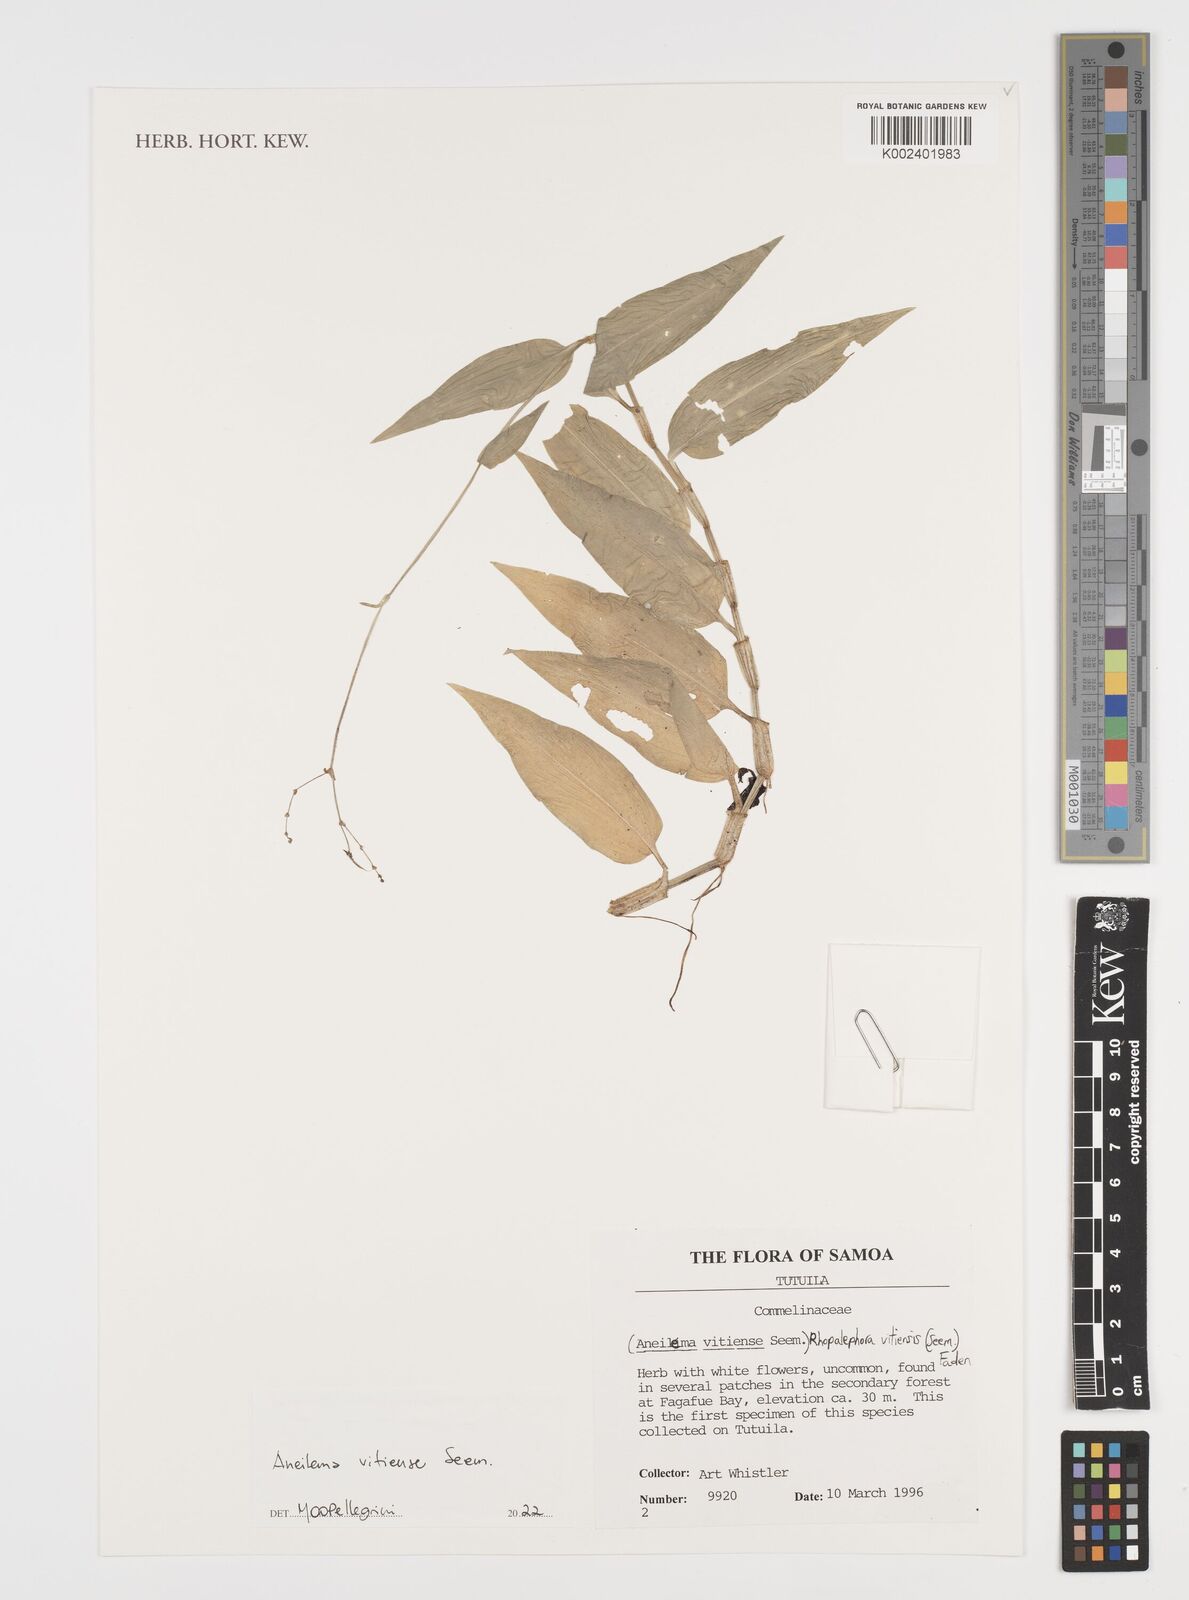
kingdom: Plantae
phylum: Tracheophyta
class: Liliopsida
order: Commelinales
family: Commelinaceae
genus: Rhopalephora
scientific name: Rhopalephora vitiensis
